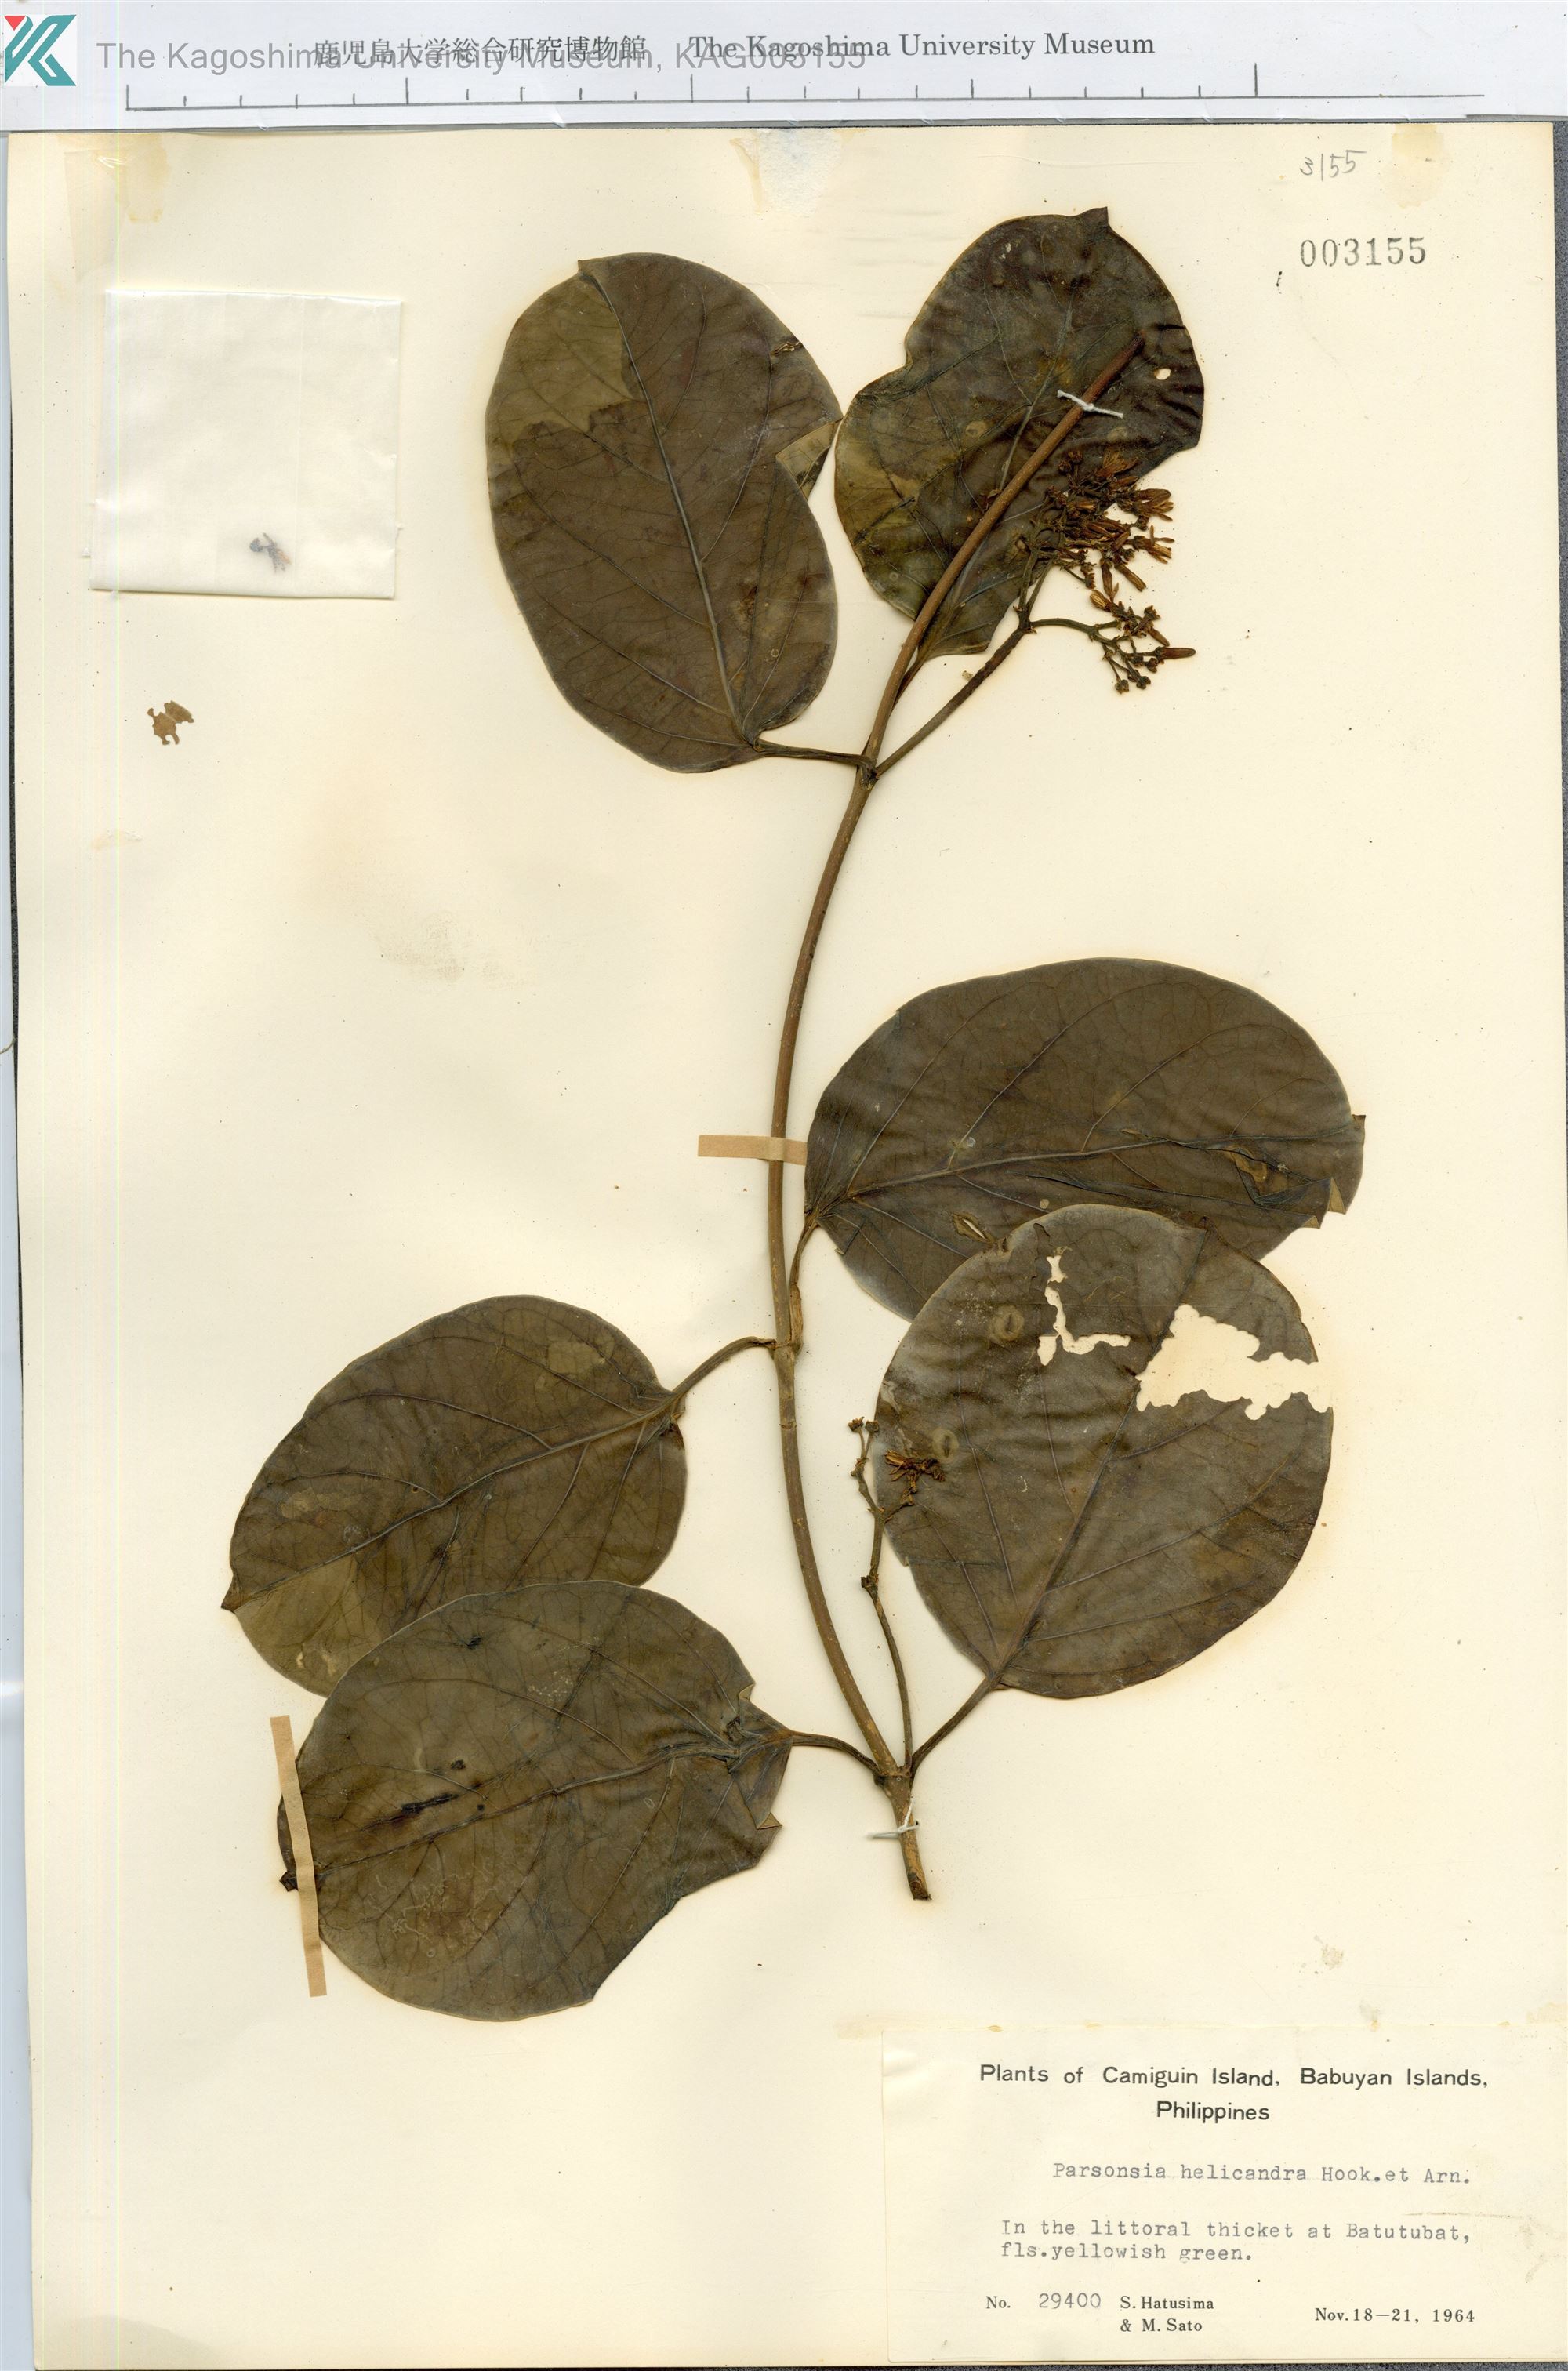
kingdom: Plantae
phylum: Tracheophyta
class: Magnoliopsida
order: Gentianales
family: Apocynaceae
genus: Parsonsia
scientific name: Parsonsia alboflavescens
